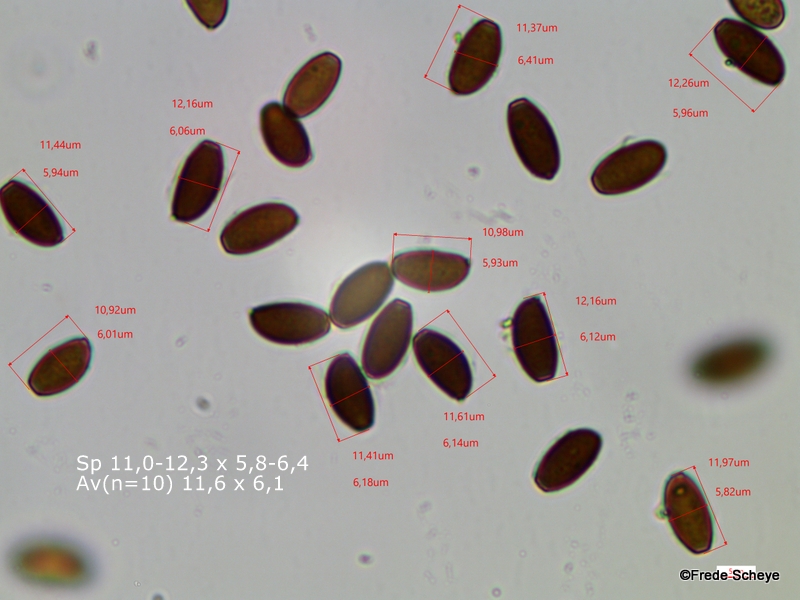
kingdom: Fungi
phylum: Basidiomycota
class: Agaricomycetes
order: Agaricales
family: Psathyrellaceae
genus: Psathyrella
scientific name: Psathyrella pseudogracilis
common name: slank mørkhat
